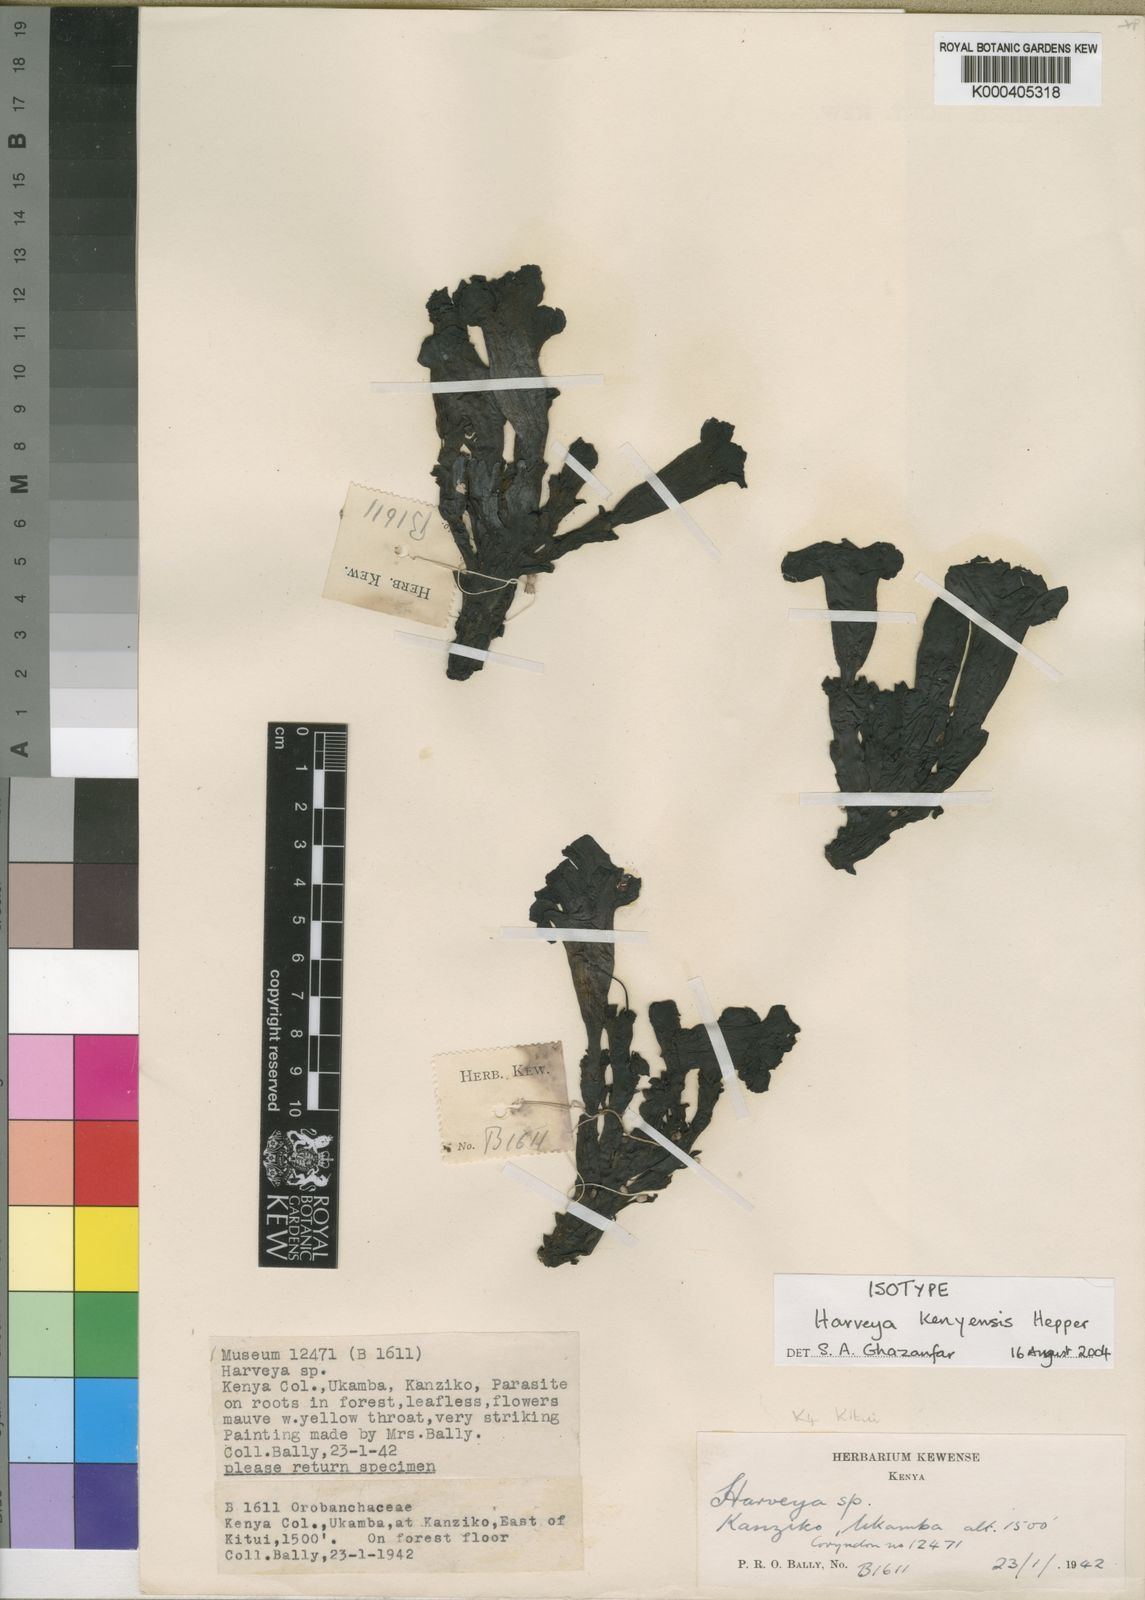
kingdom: Plantae
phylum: Tracheophyta
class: Magnoliopsida
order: Lamiales
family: Orobanchaceae
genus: Harveya
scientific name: Harveya kenyensis
